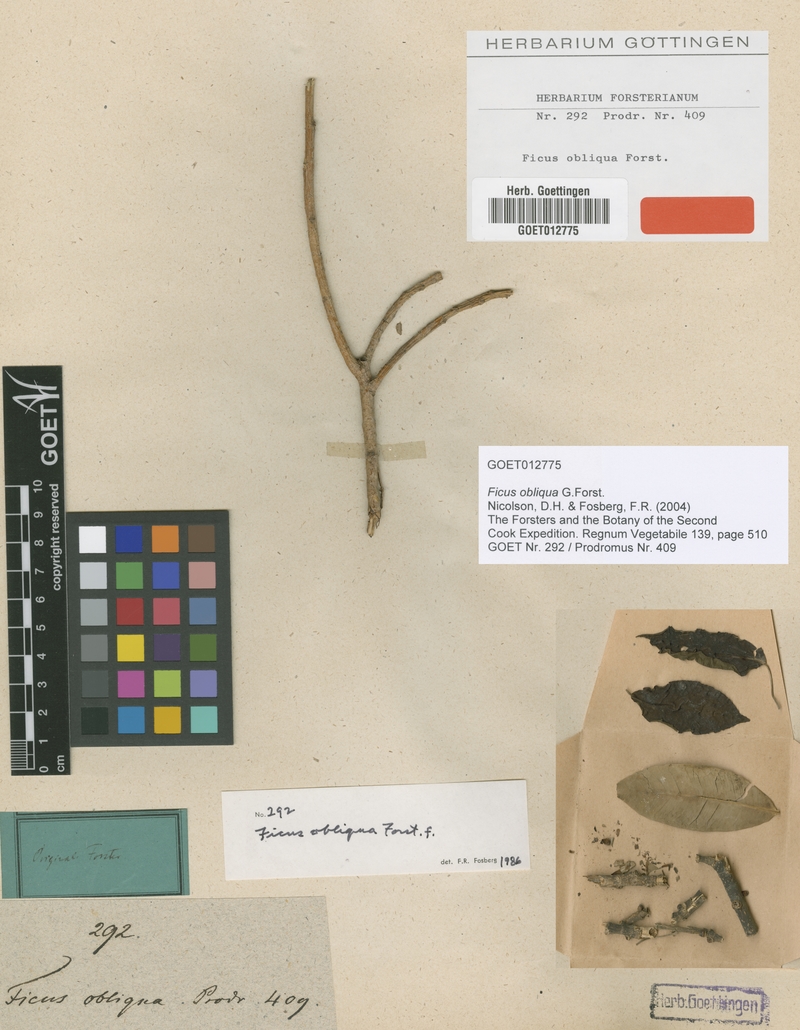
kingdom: Plantae
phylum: Tracheophyta
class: Magnoliopsida
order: Rosales
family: Moraceae
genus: Ficus
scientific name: Ficus obliqua
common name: Small-leaf fig
